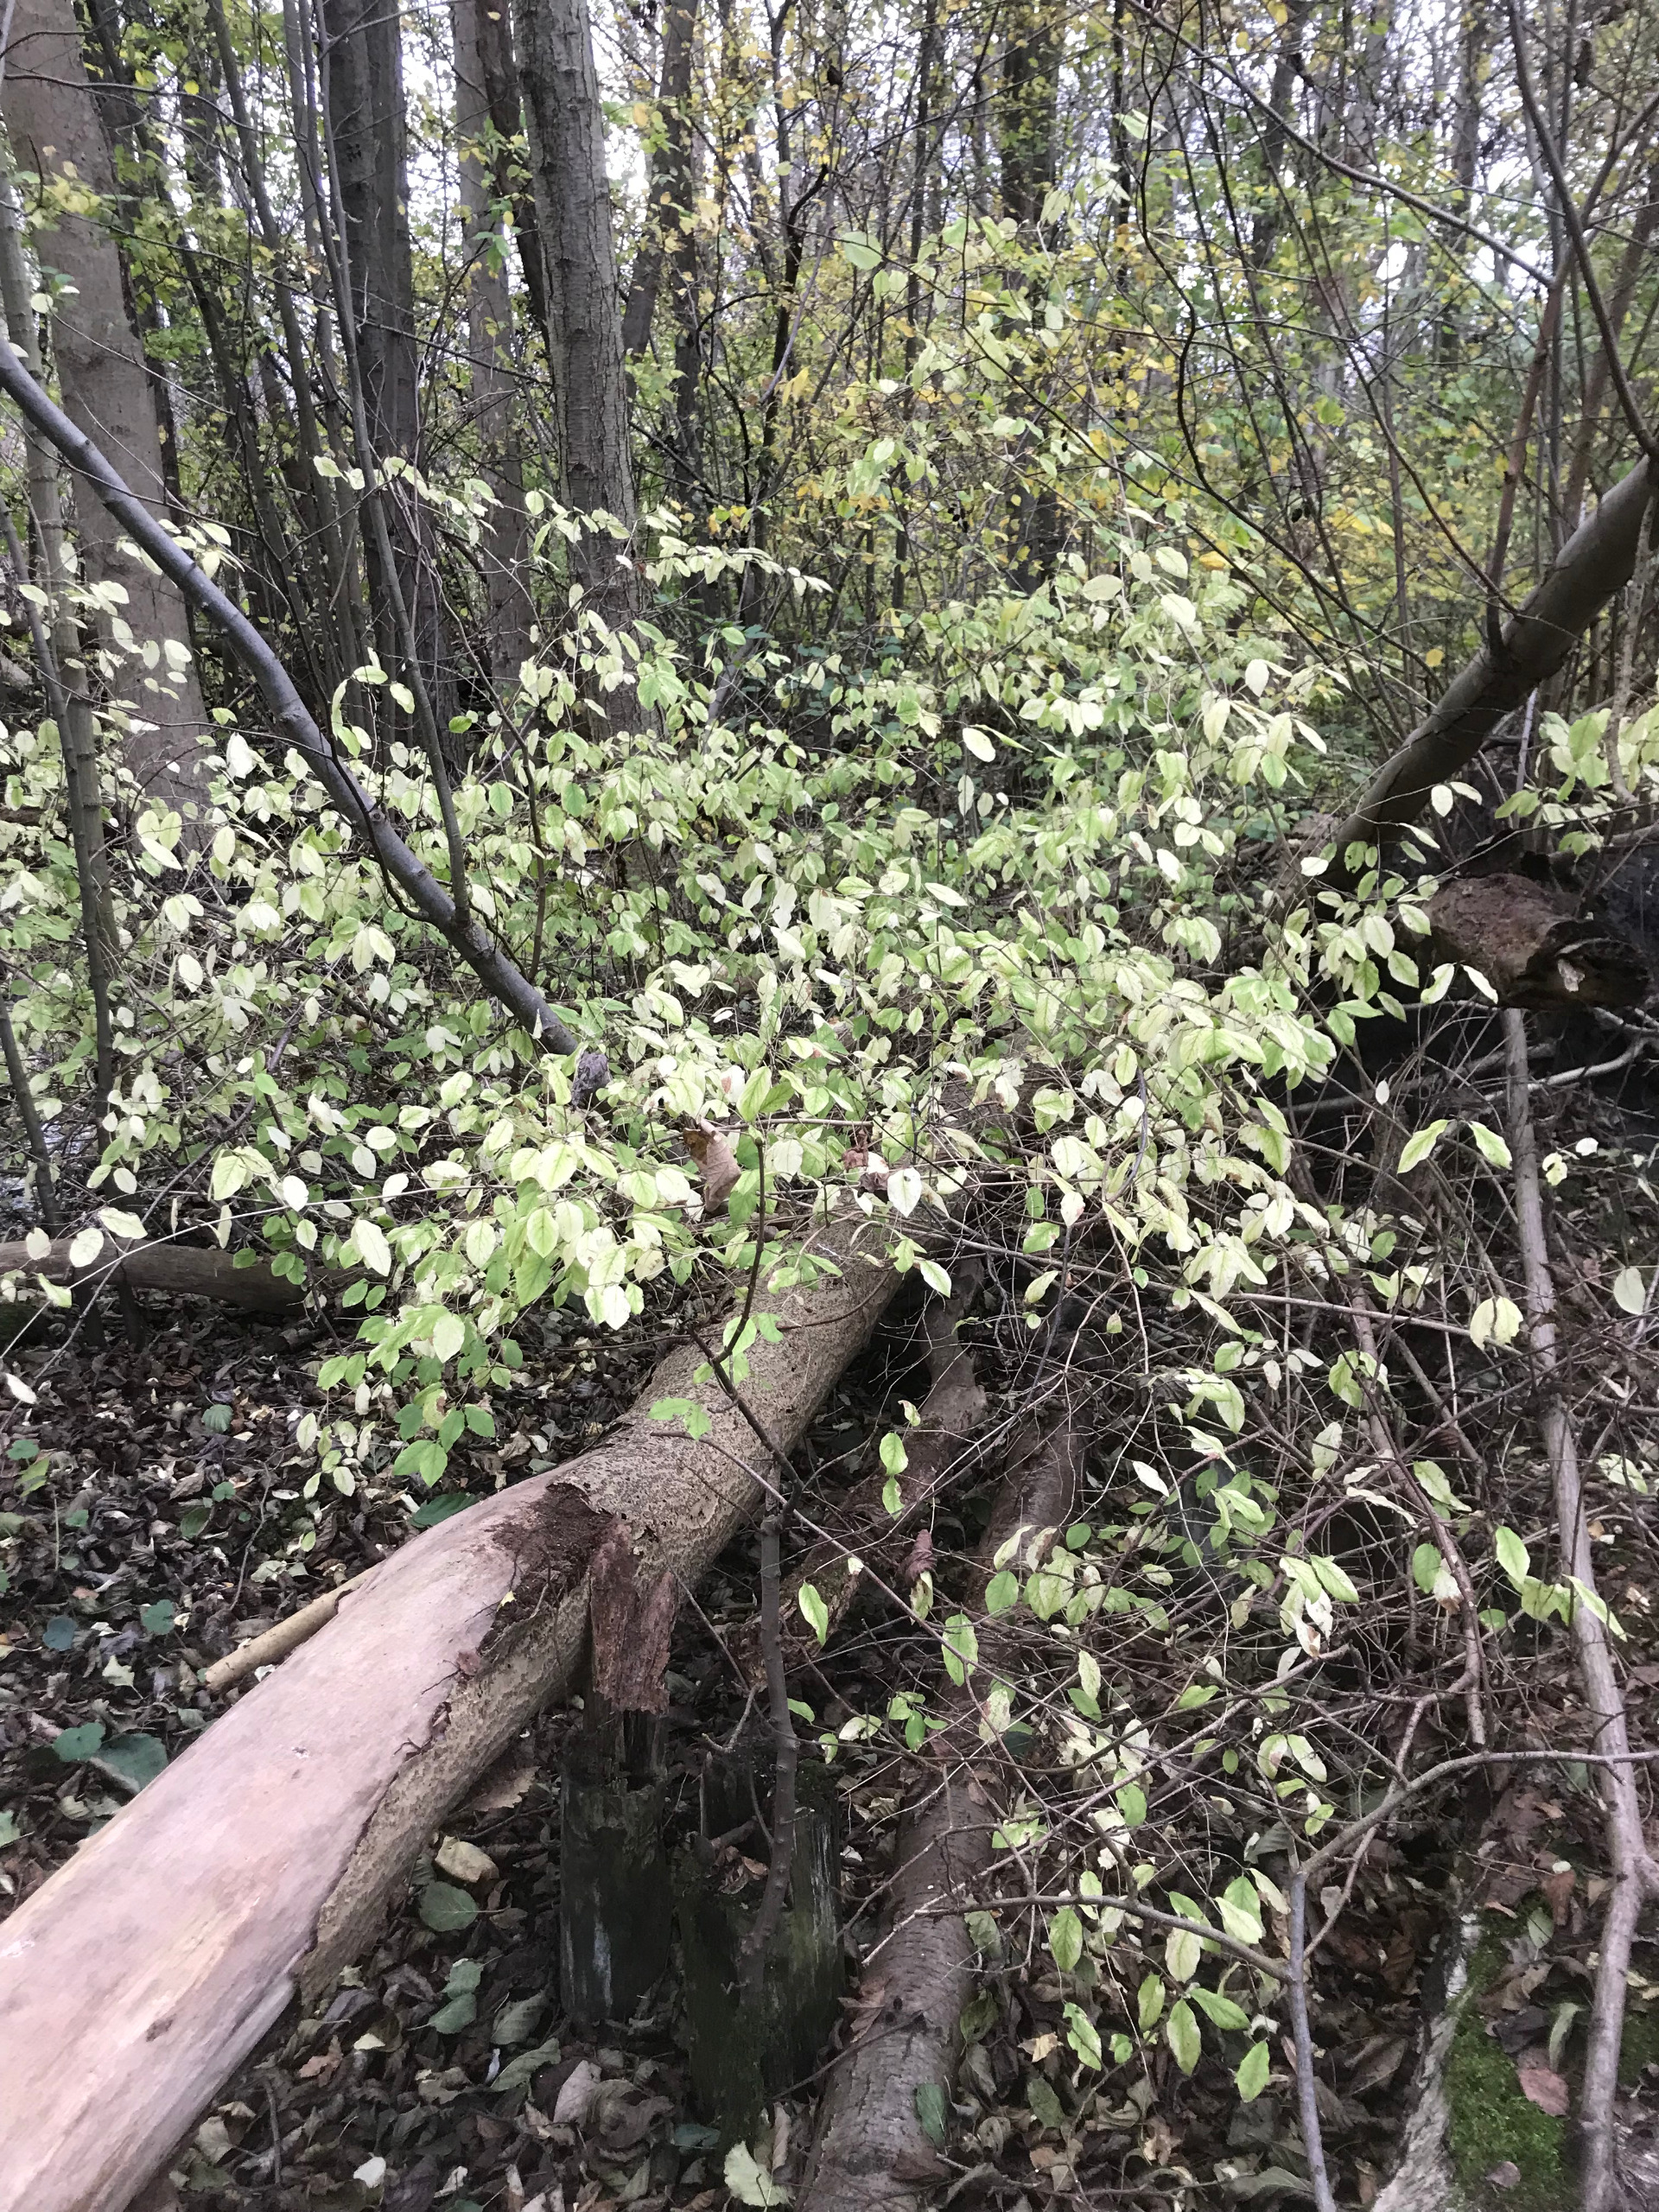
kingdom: Plantae
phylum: Tracheophyta
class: Magnoliopsida
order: Dipsacales
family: Caprifoliaceae
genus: Lonicera
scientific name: Lonicera xylosteum
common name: Dunet gedeblad
